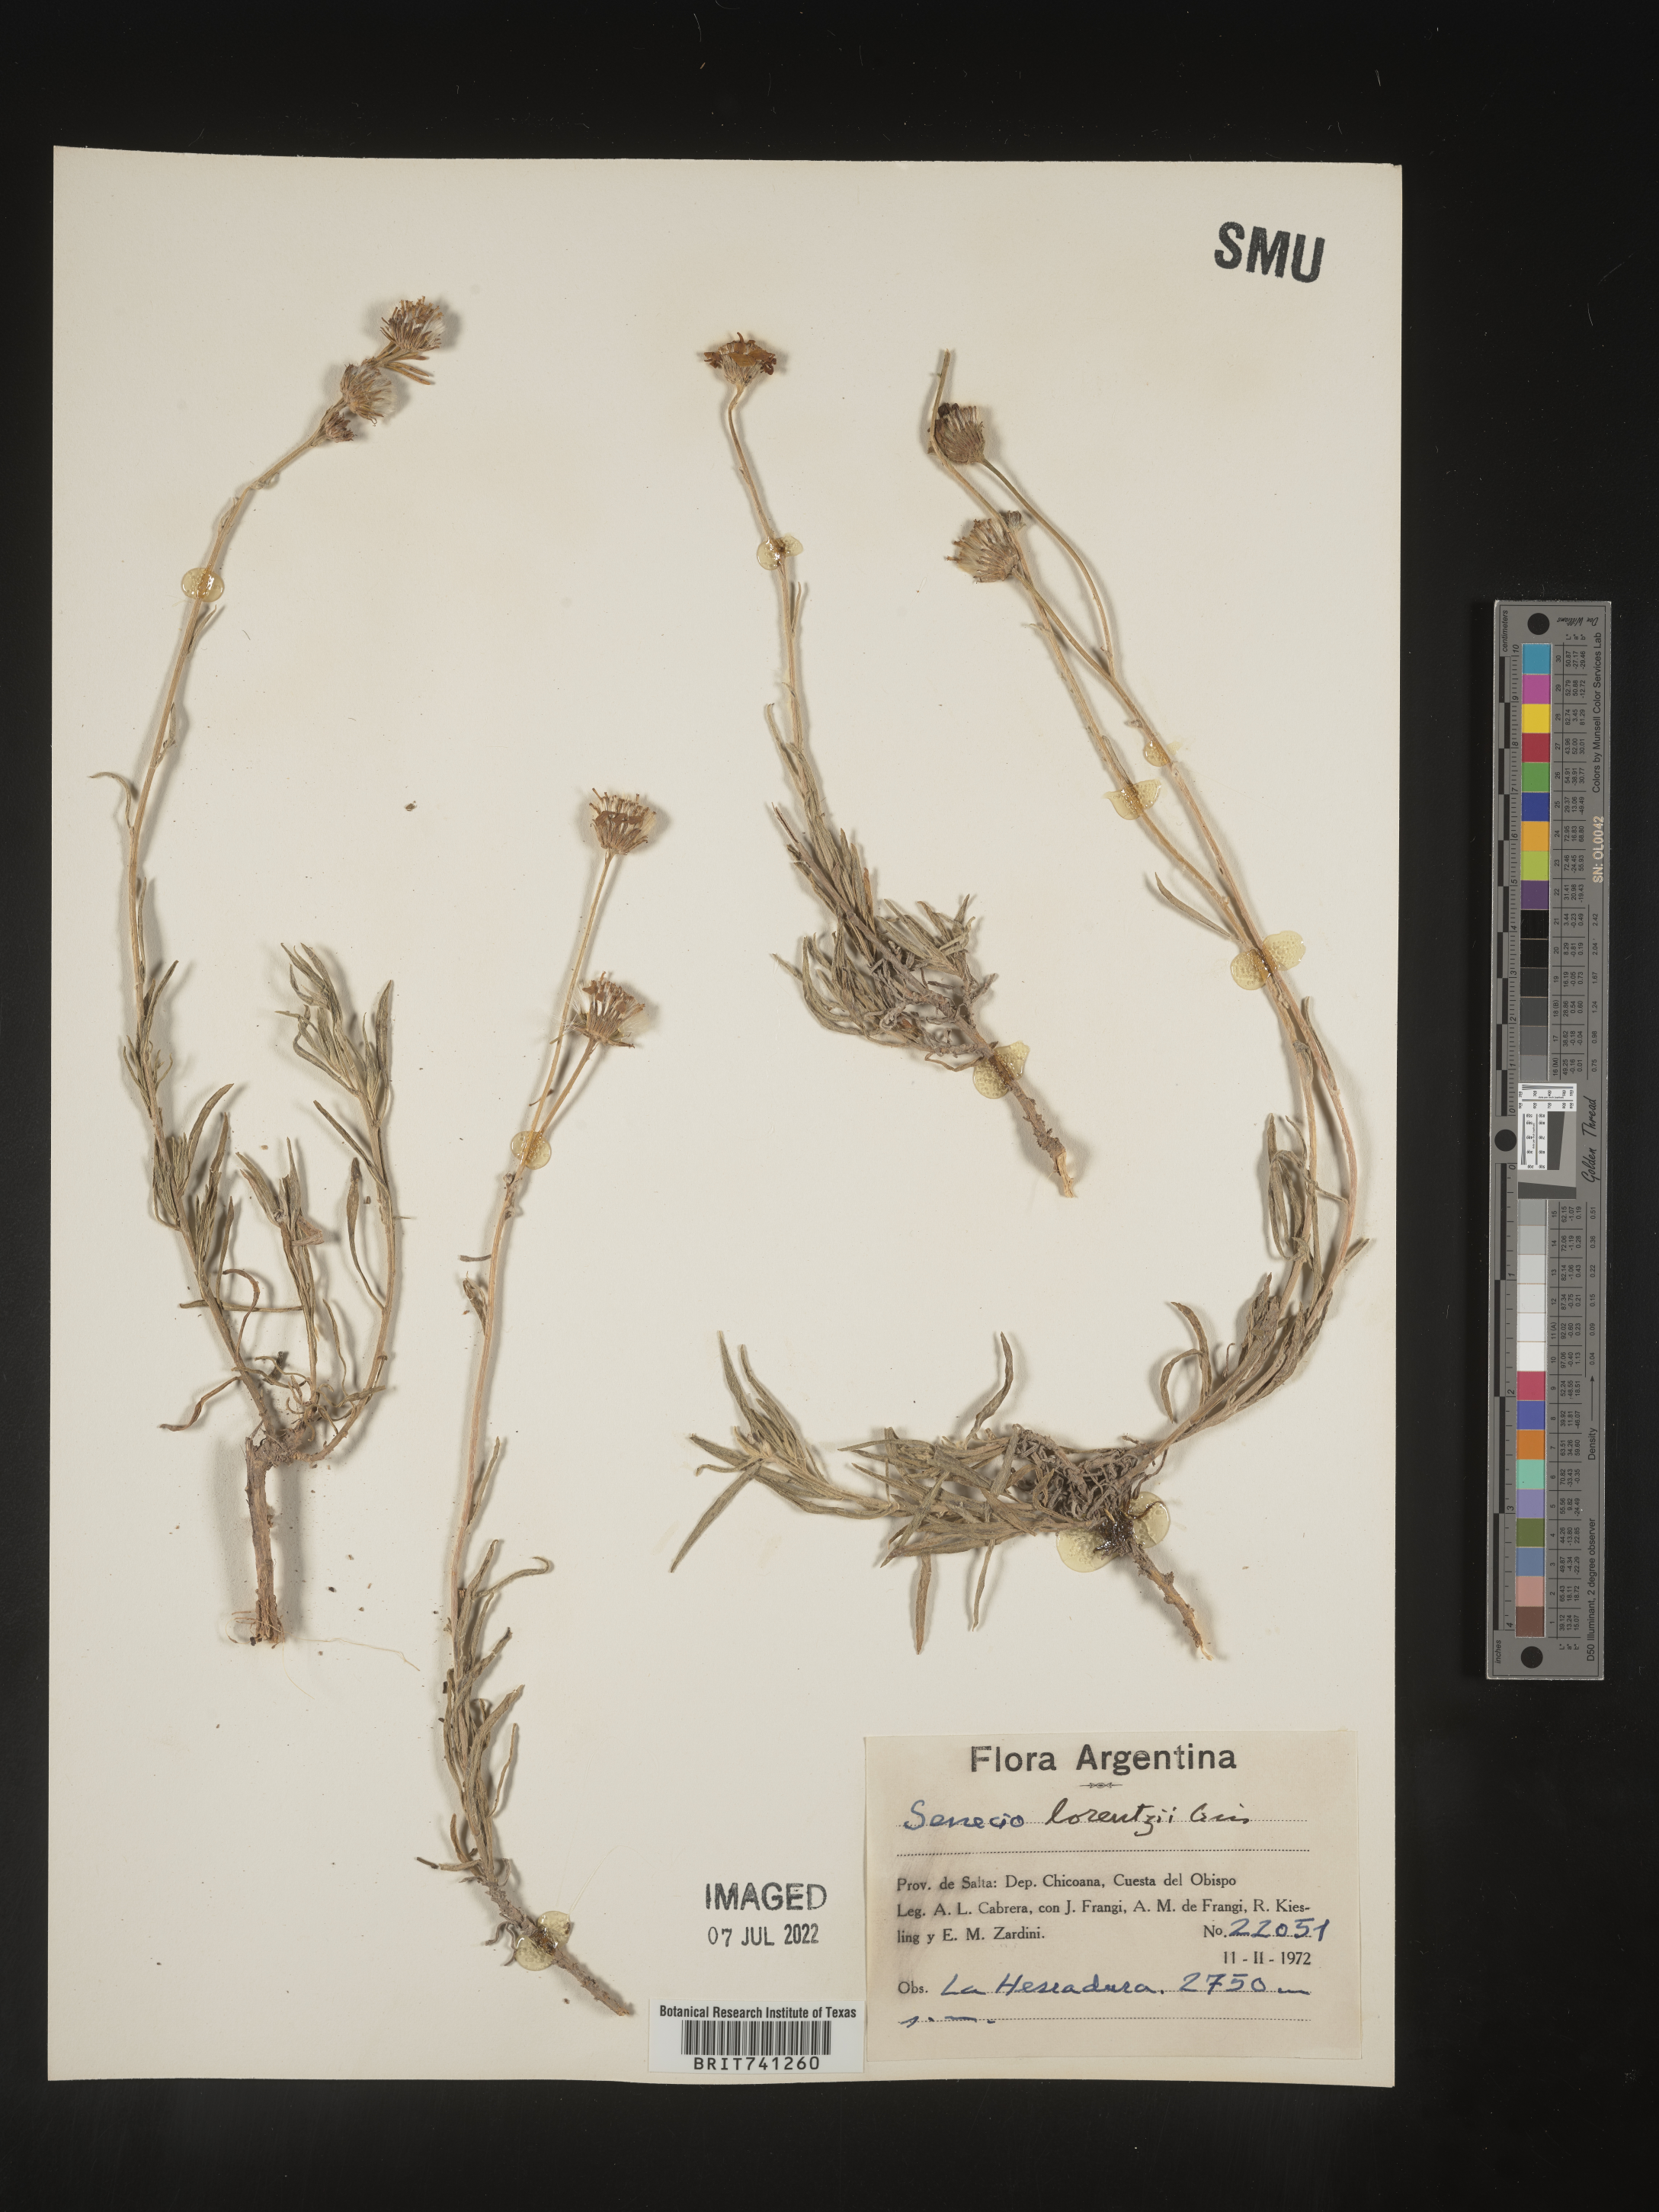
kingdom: Plantae
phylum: Tracheophyta
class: Magnoliopsida
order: Asterales
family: Asteraceae
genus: Senecio
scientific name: Senecio
